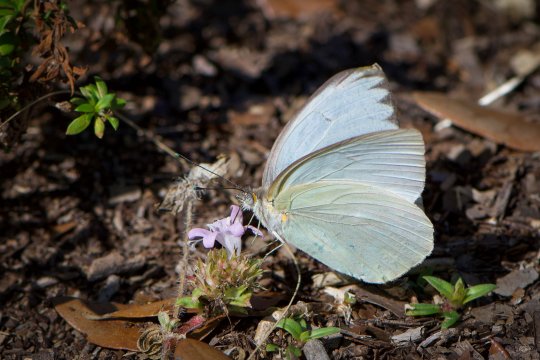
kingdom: Animalia
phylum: Arthropoda
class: Insecta
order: Lepidoptera
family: Pieridae
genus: Ascia
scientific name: Ascia monuste
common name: Great Southern White
